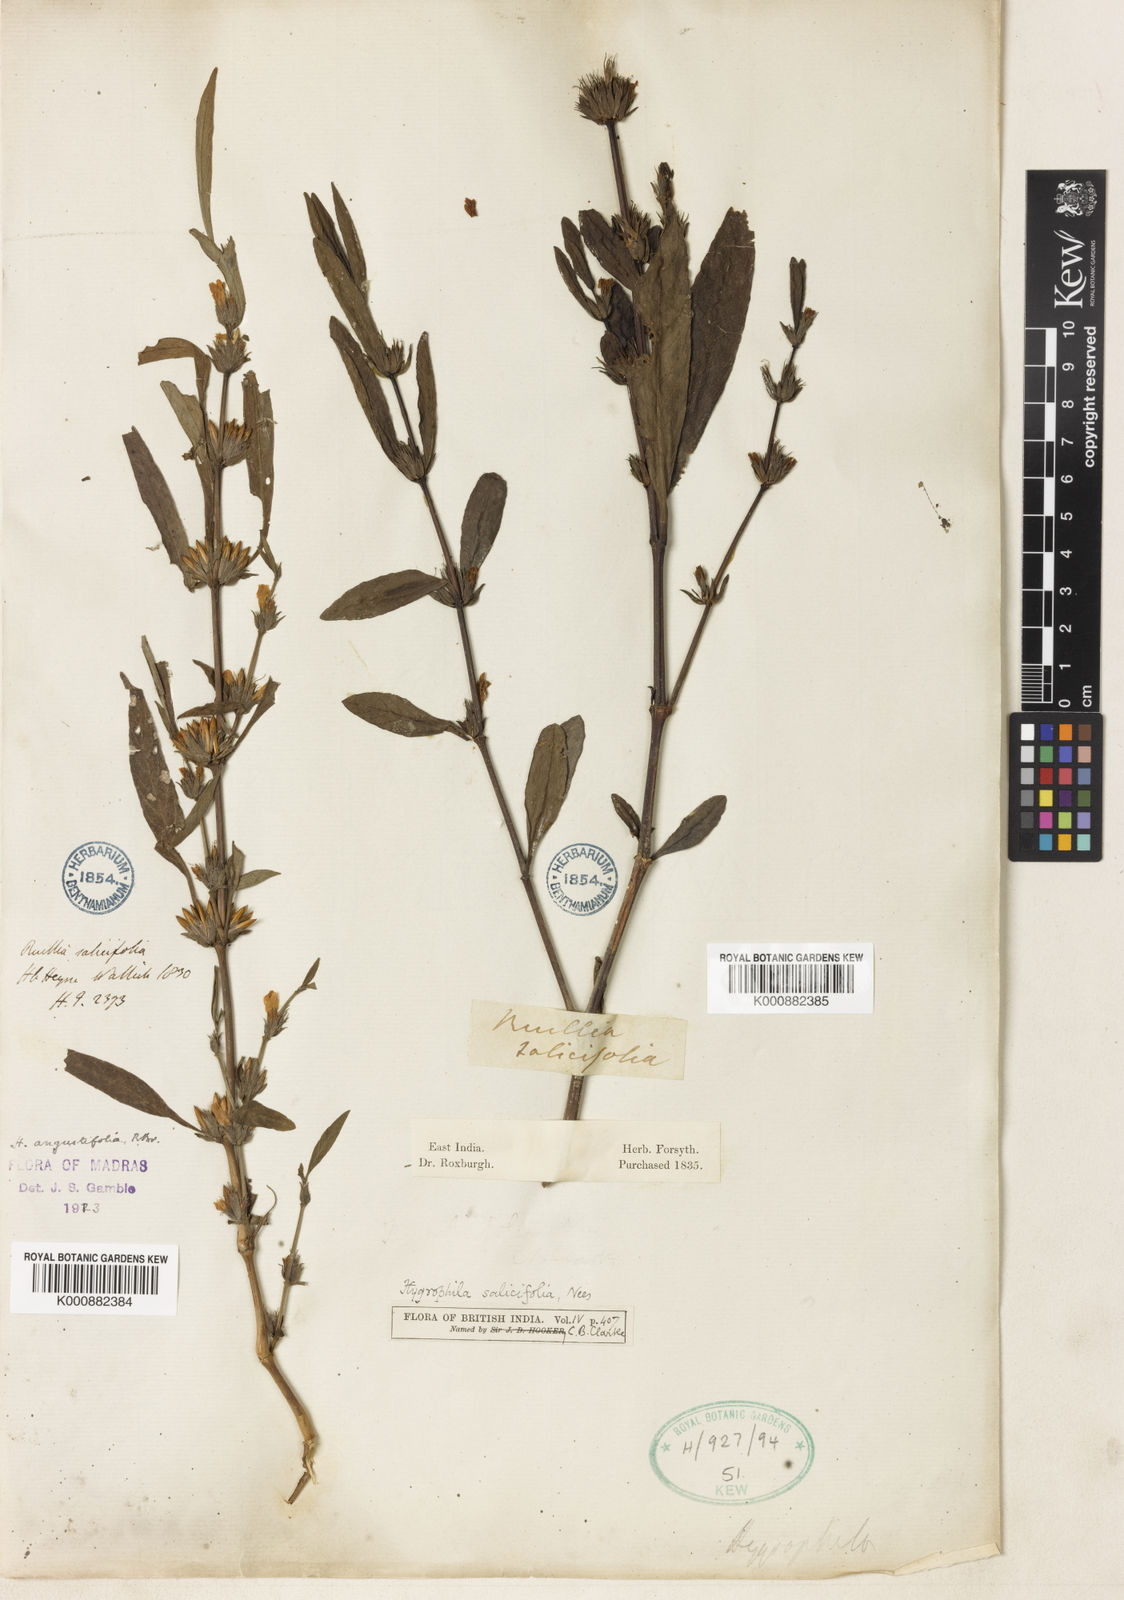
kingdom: Plantae
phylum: Tracheophyta
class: Magnoliopsida
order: Lamiales
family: Acanthaceae
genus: Hygrophila
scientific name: Hygrophila ringens
